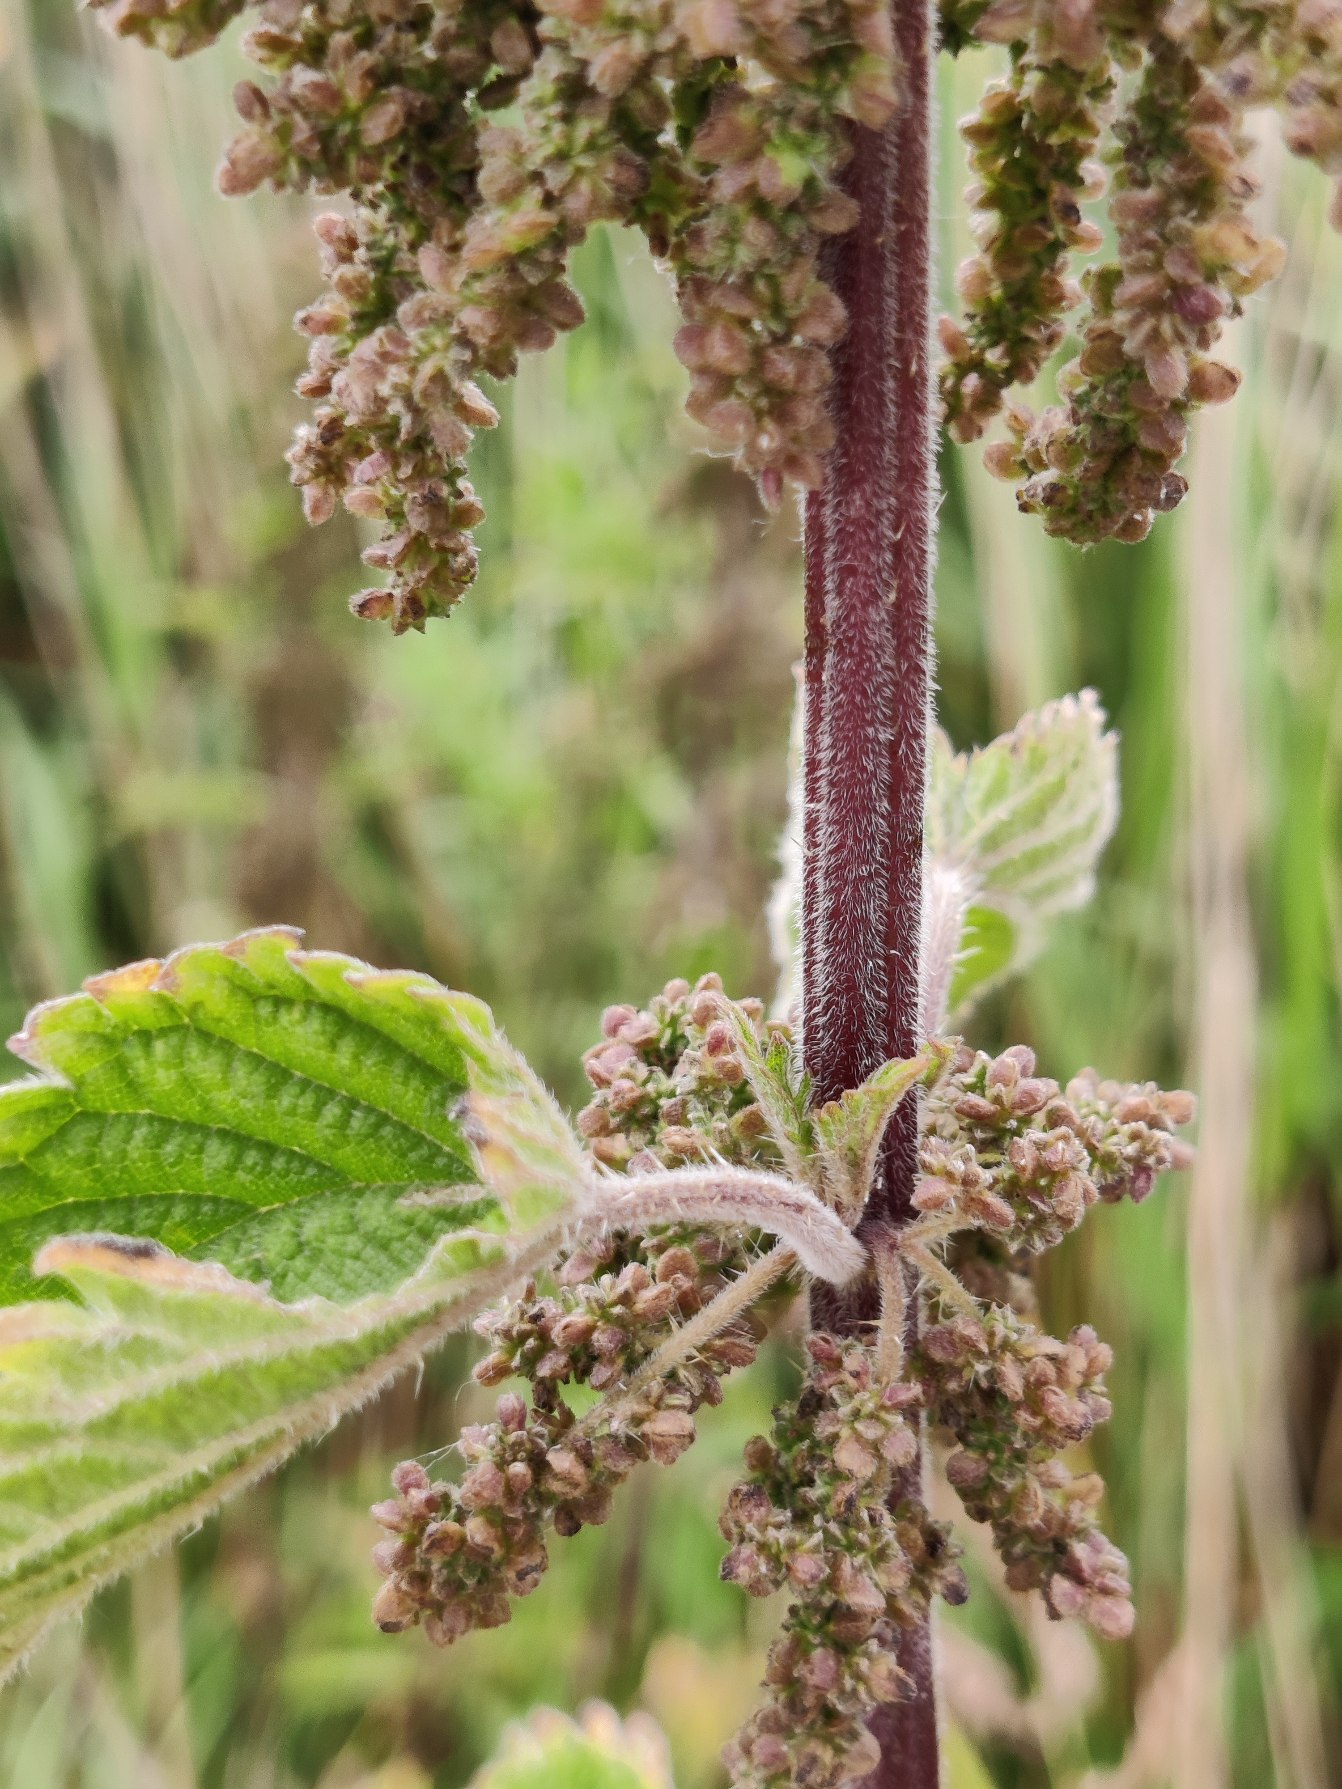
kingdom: Plantae
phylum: Tracheophyta
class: Magnoliopsida
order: Rosales
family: Urticaceae
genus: Urtica
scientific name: Urtica dioica
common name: Stor nælde
